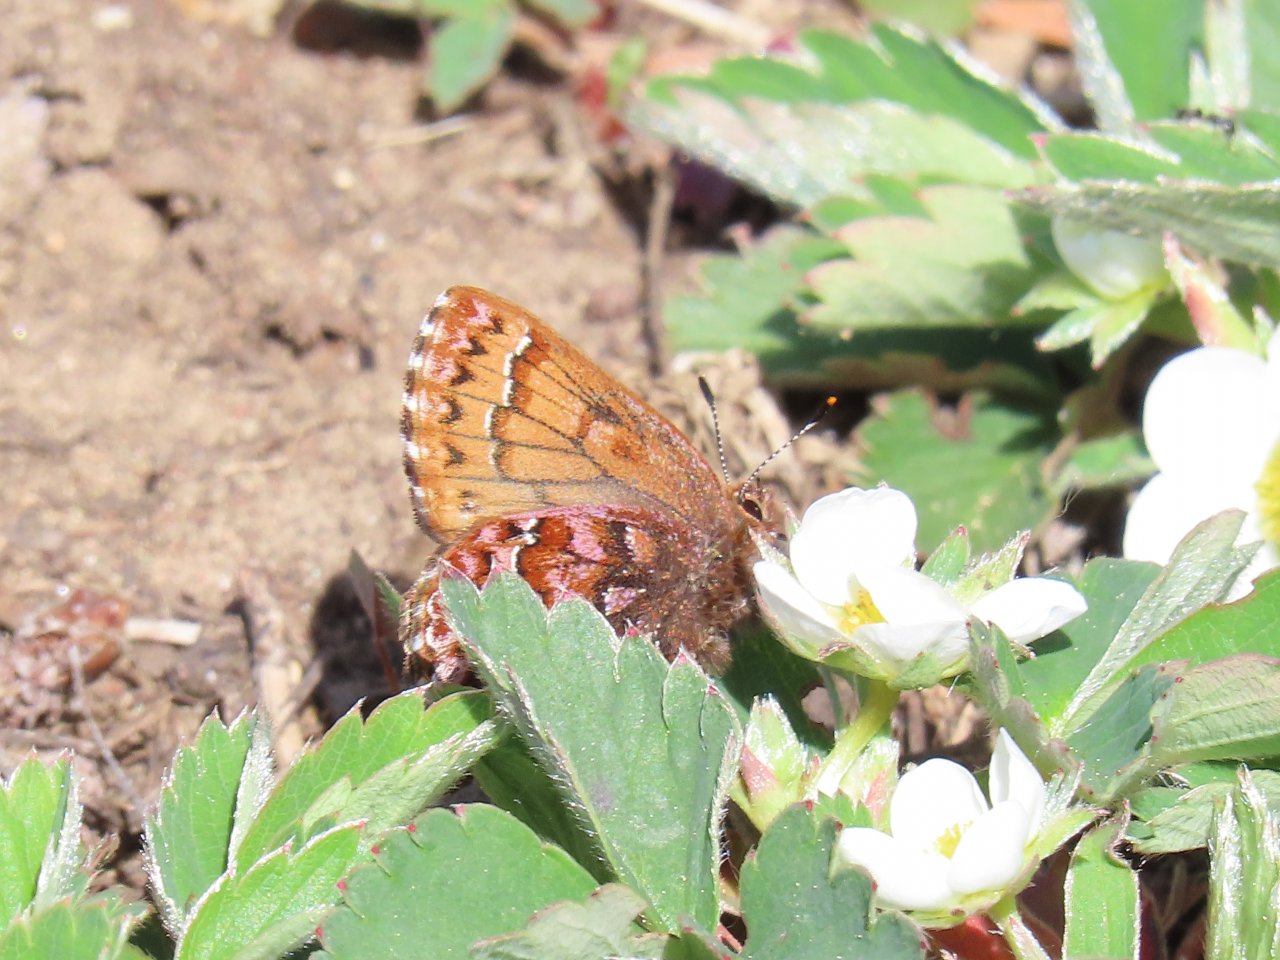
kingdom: Animalia
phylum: Arthropoda
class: Insecta
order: Lepidoptera
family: Lycaenidae
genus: Incisalia
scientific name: Incisalia eryphon
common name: Western Pine Elfin
